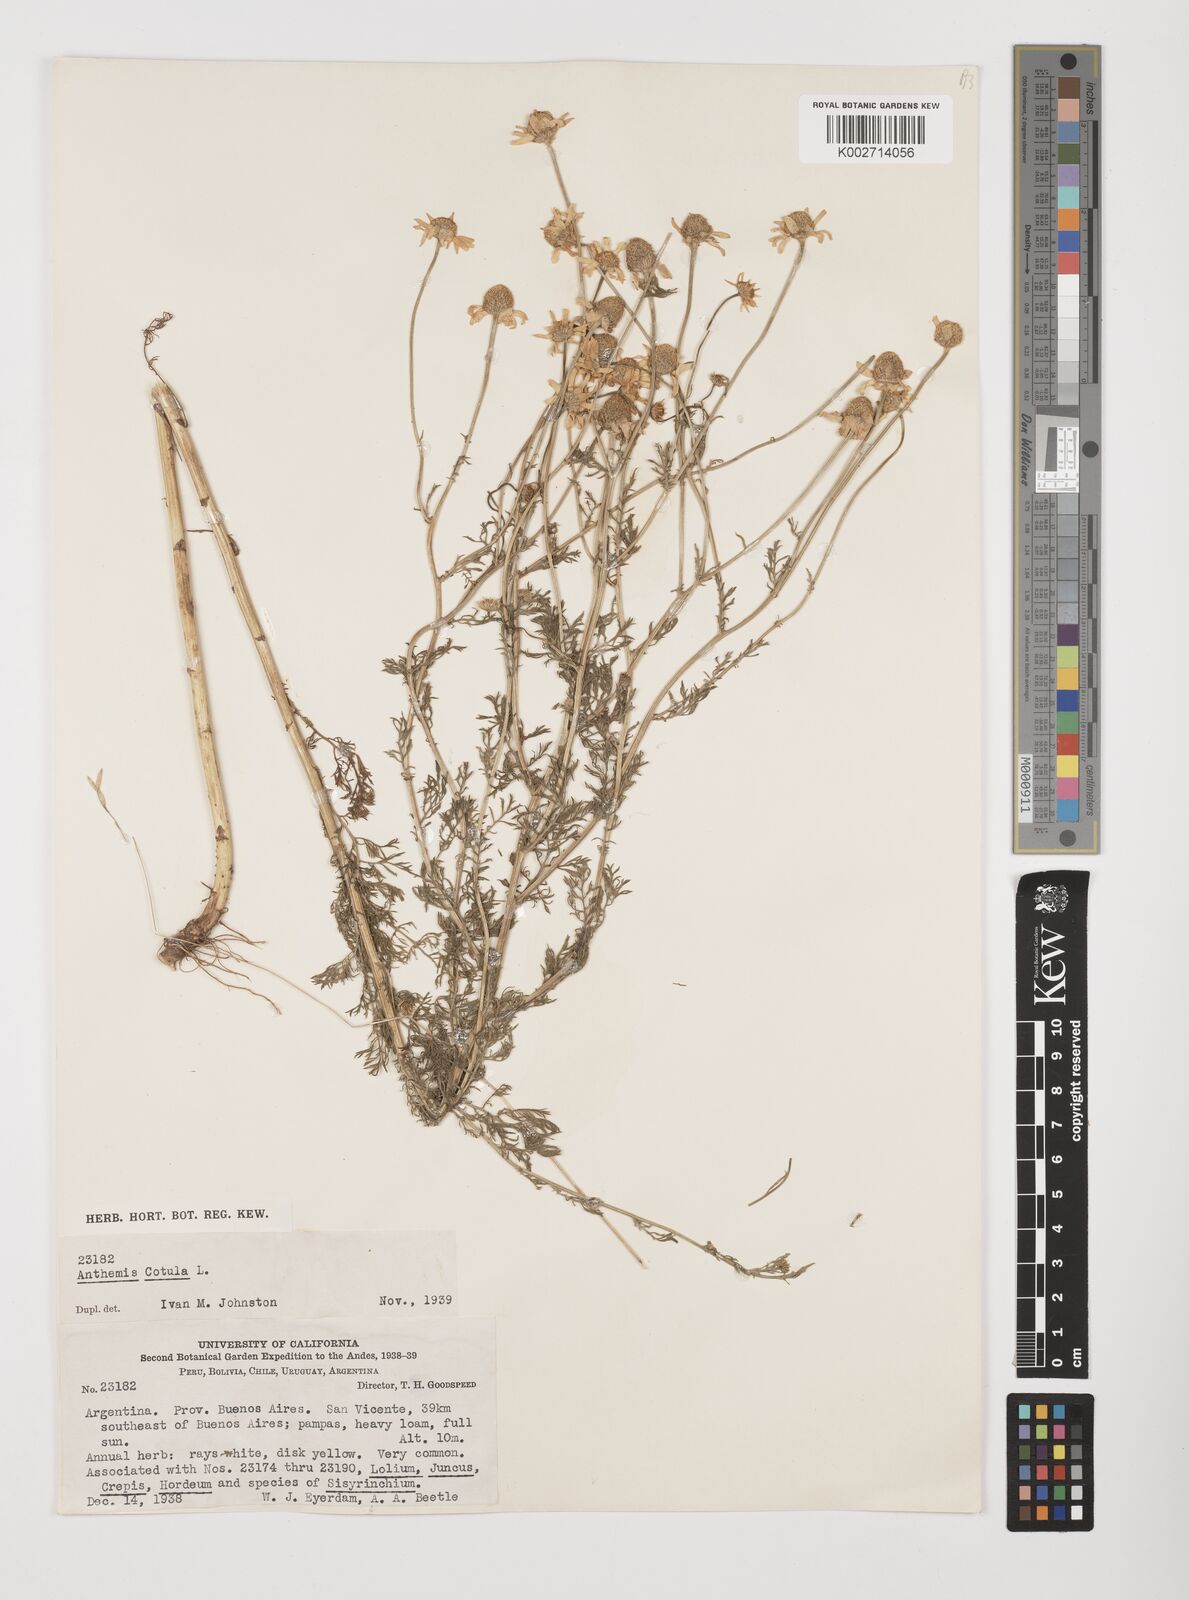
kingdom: Plantae
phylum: Tracheophyta
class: Magnoliopsida
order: Asterales
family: Asteraceae
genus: Anthemis
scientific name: Anthemis cotula
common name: Stinking chamomile
